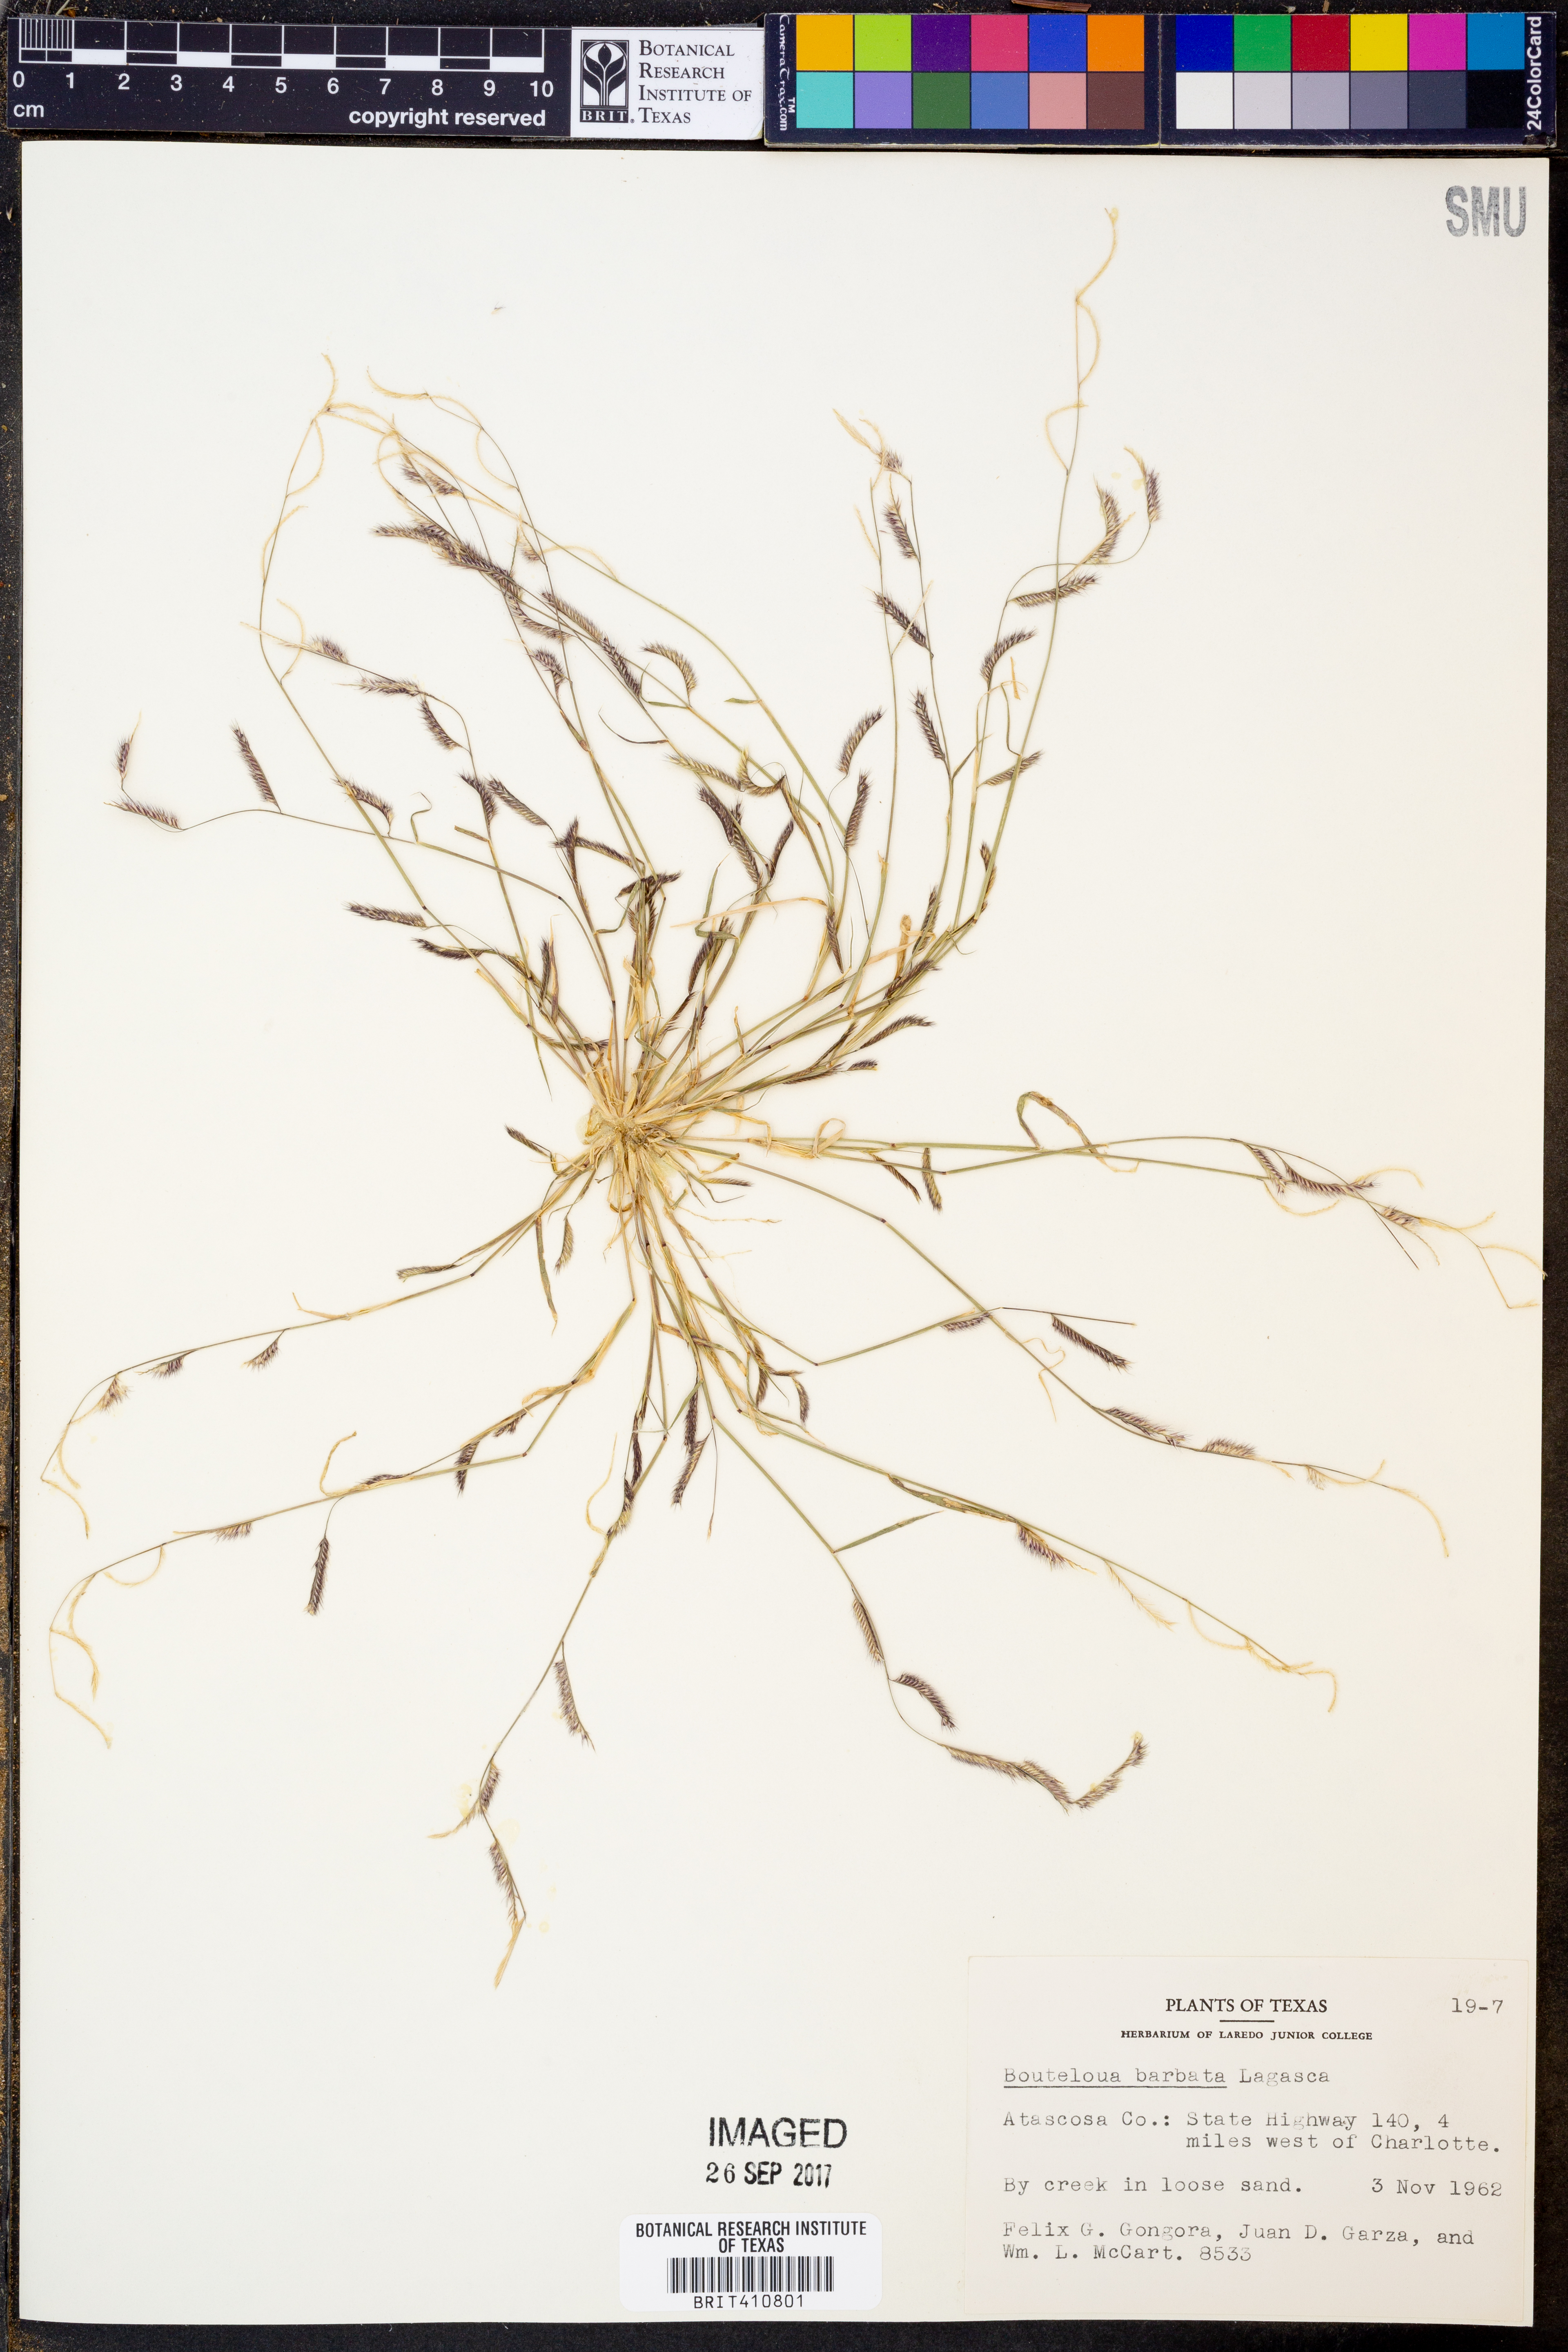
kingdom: Plantae
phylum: Tracheophyta
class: Liliopsida
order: Poales
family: Poaceae
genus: Bouteloua
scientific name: Bouteloua barbata
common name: Six-weeks grama
